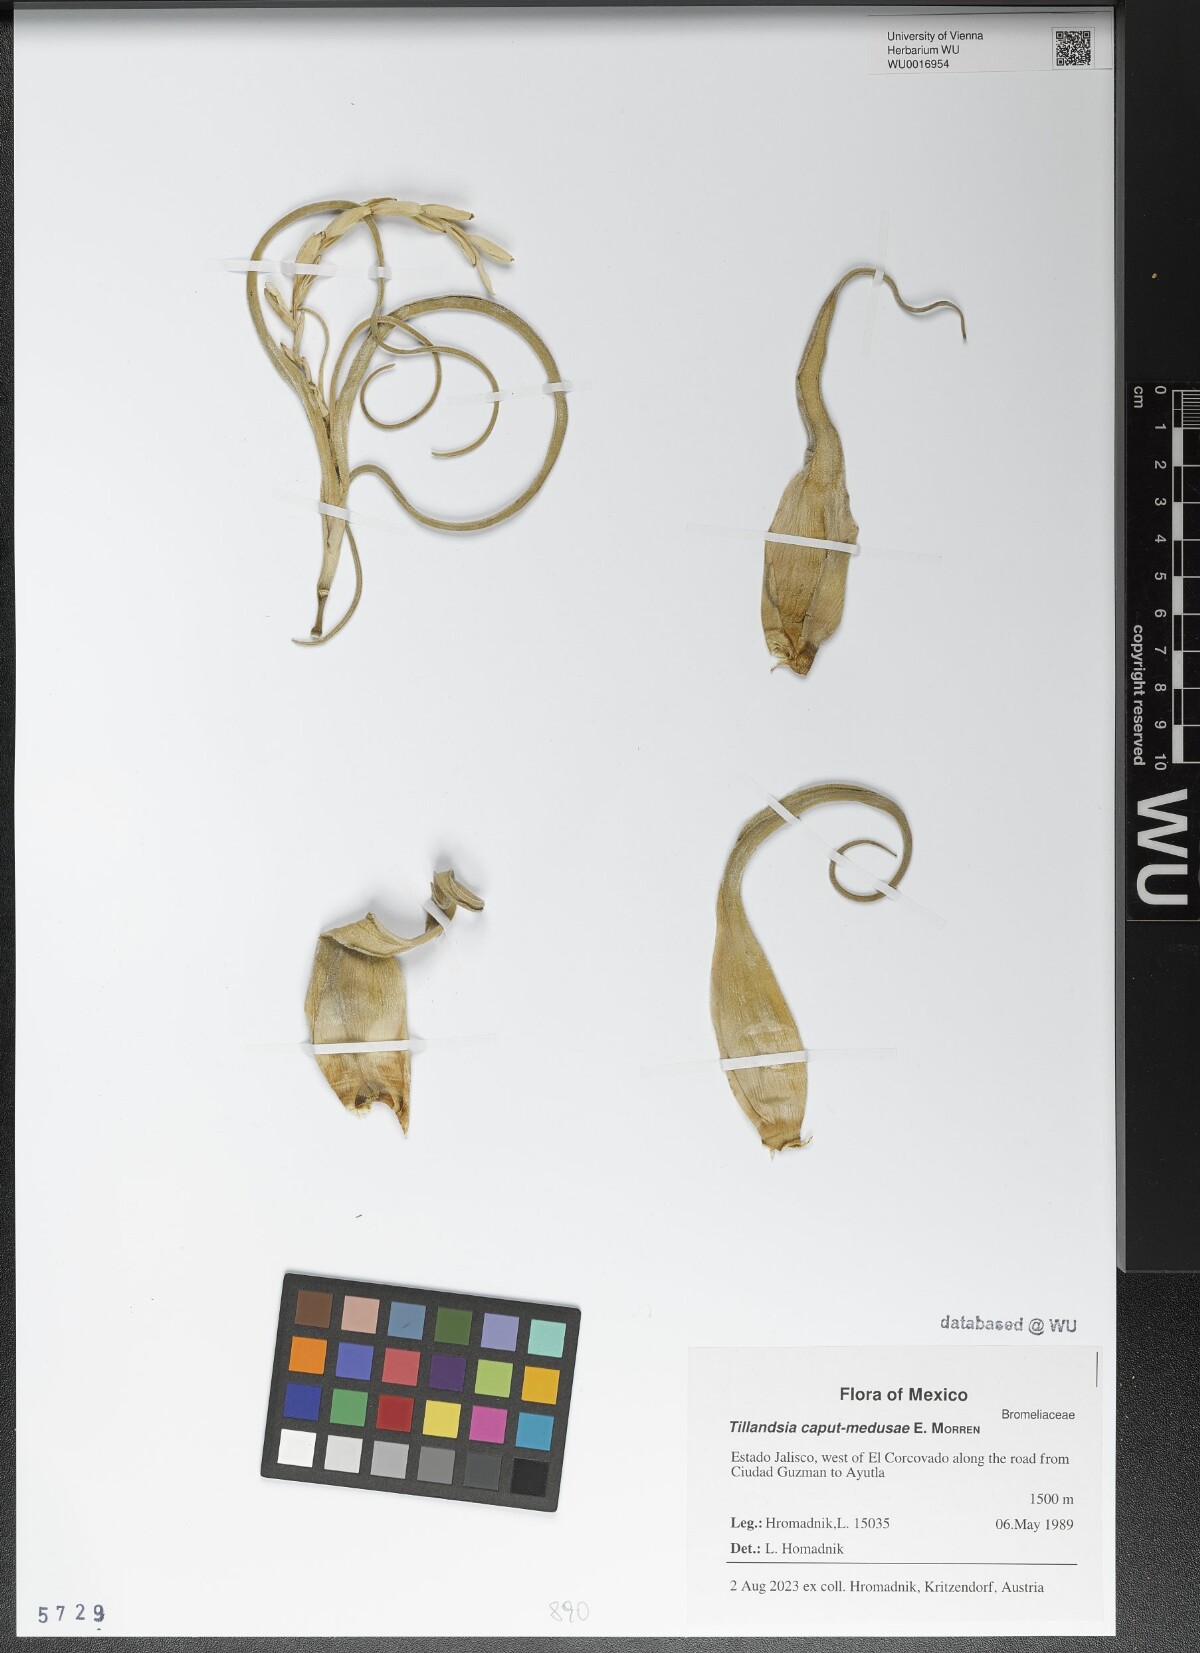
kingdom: Plantae
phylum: Tracheophyta
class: Liliopsida
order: Poales
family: Bromeliaceae
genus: Tillandsia
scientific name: Tillandsia caput-medusae
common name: Octopus plant
